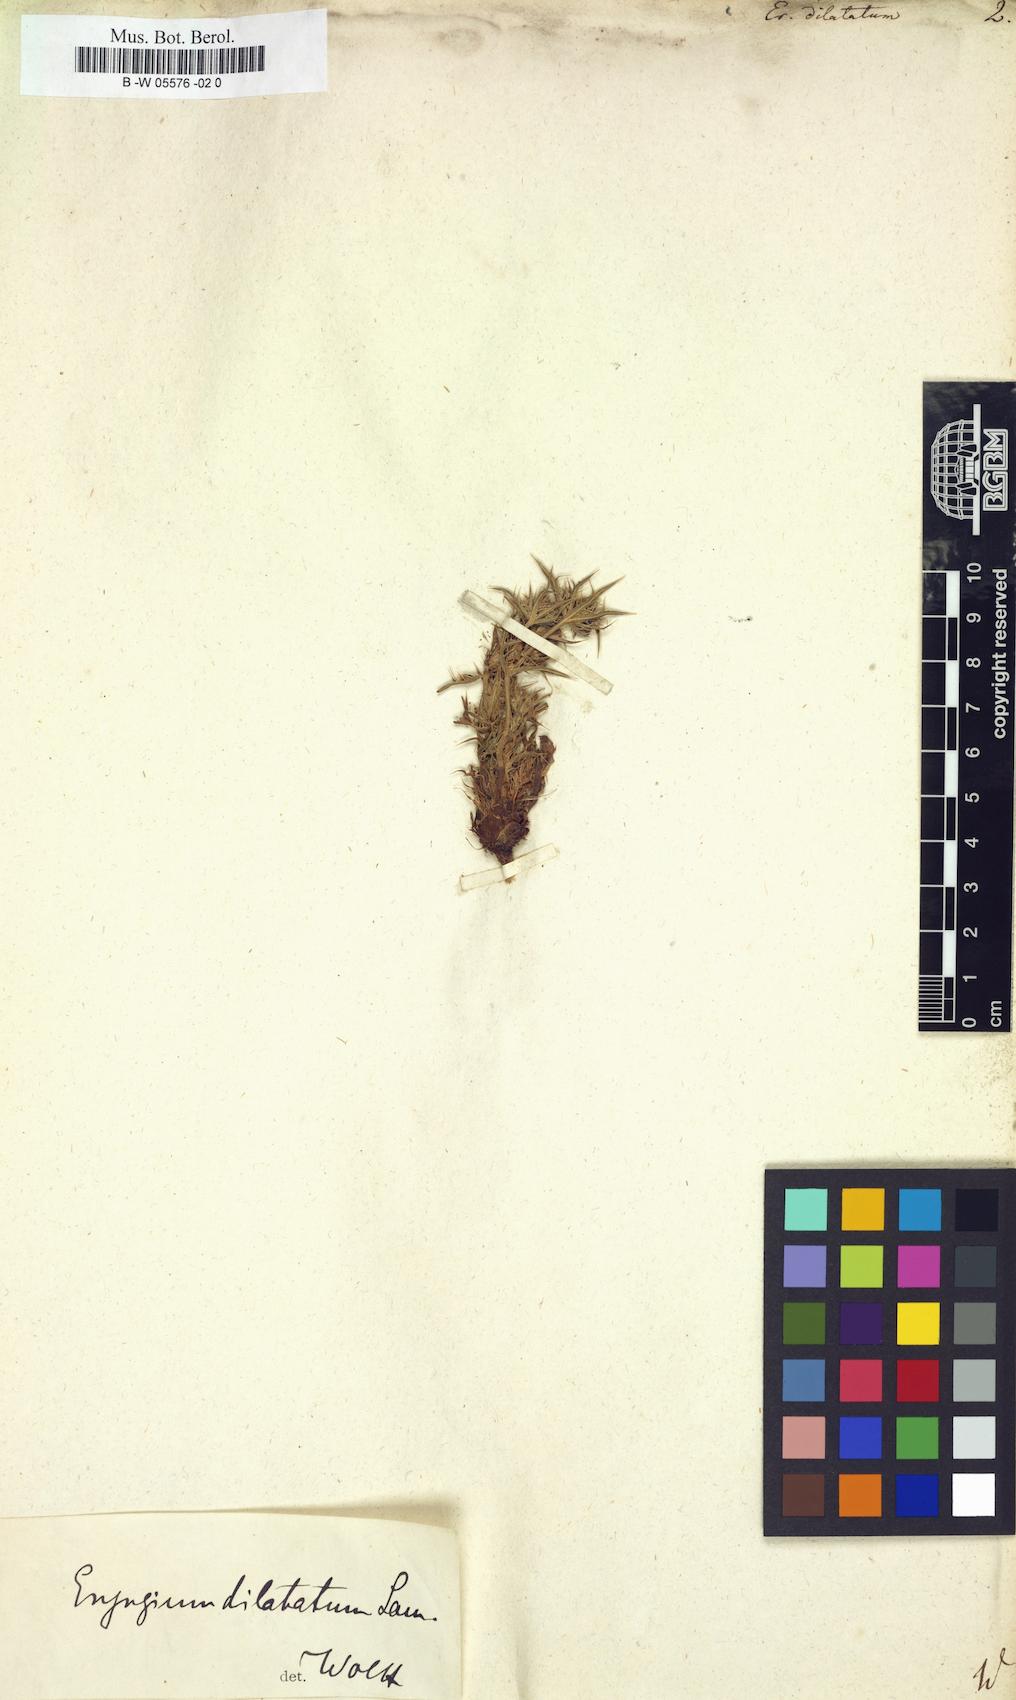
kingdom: Plantae
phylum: Tracheophyta
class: Magnoliopsida
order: Apiales
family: Apiaceae
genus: Eryngium
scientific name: Eryngium dilatatum
